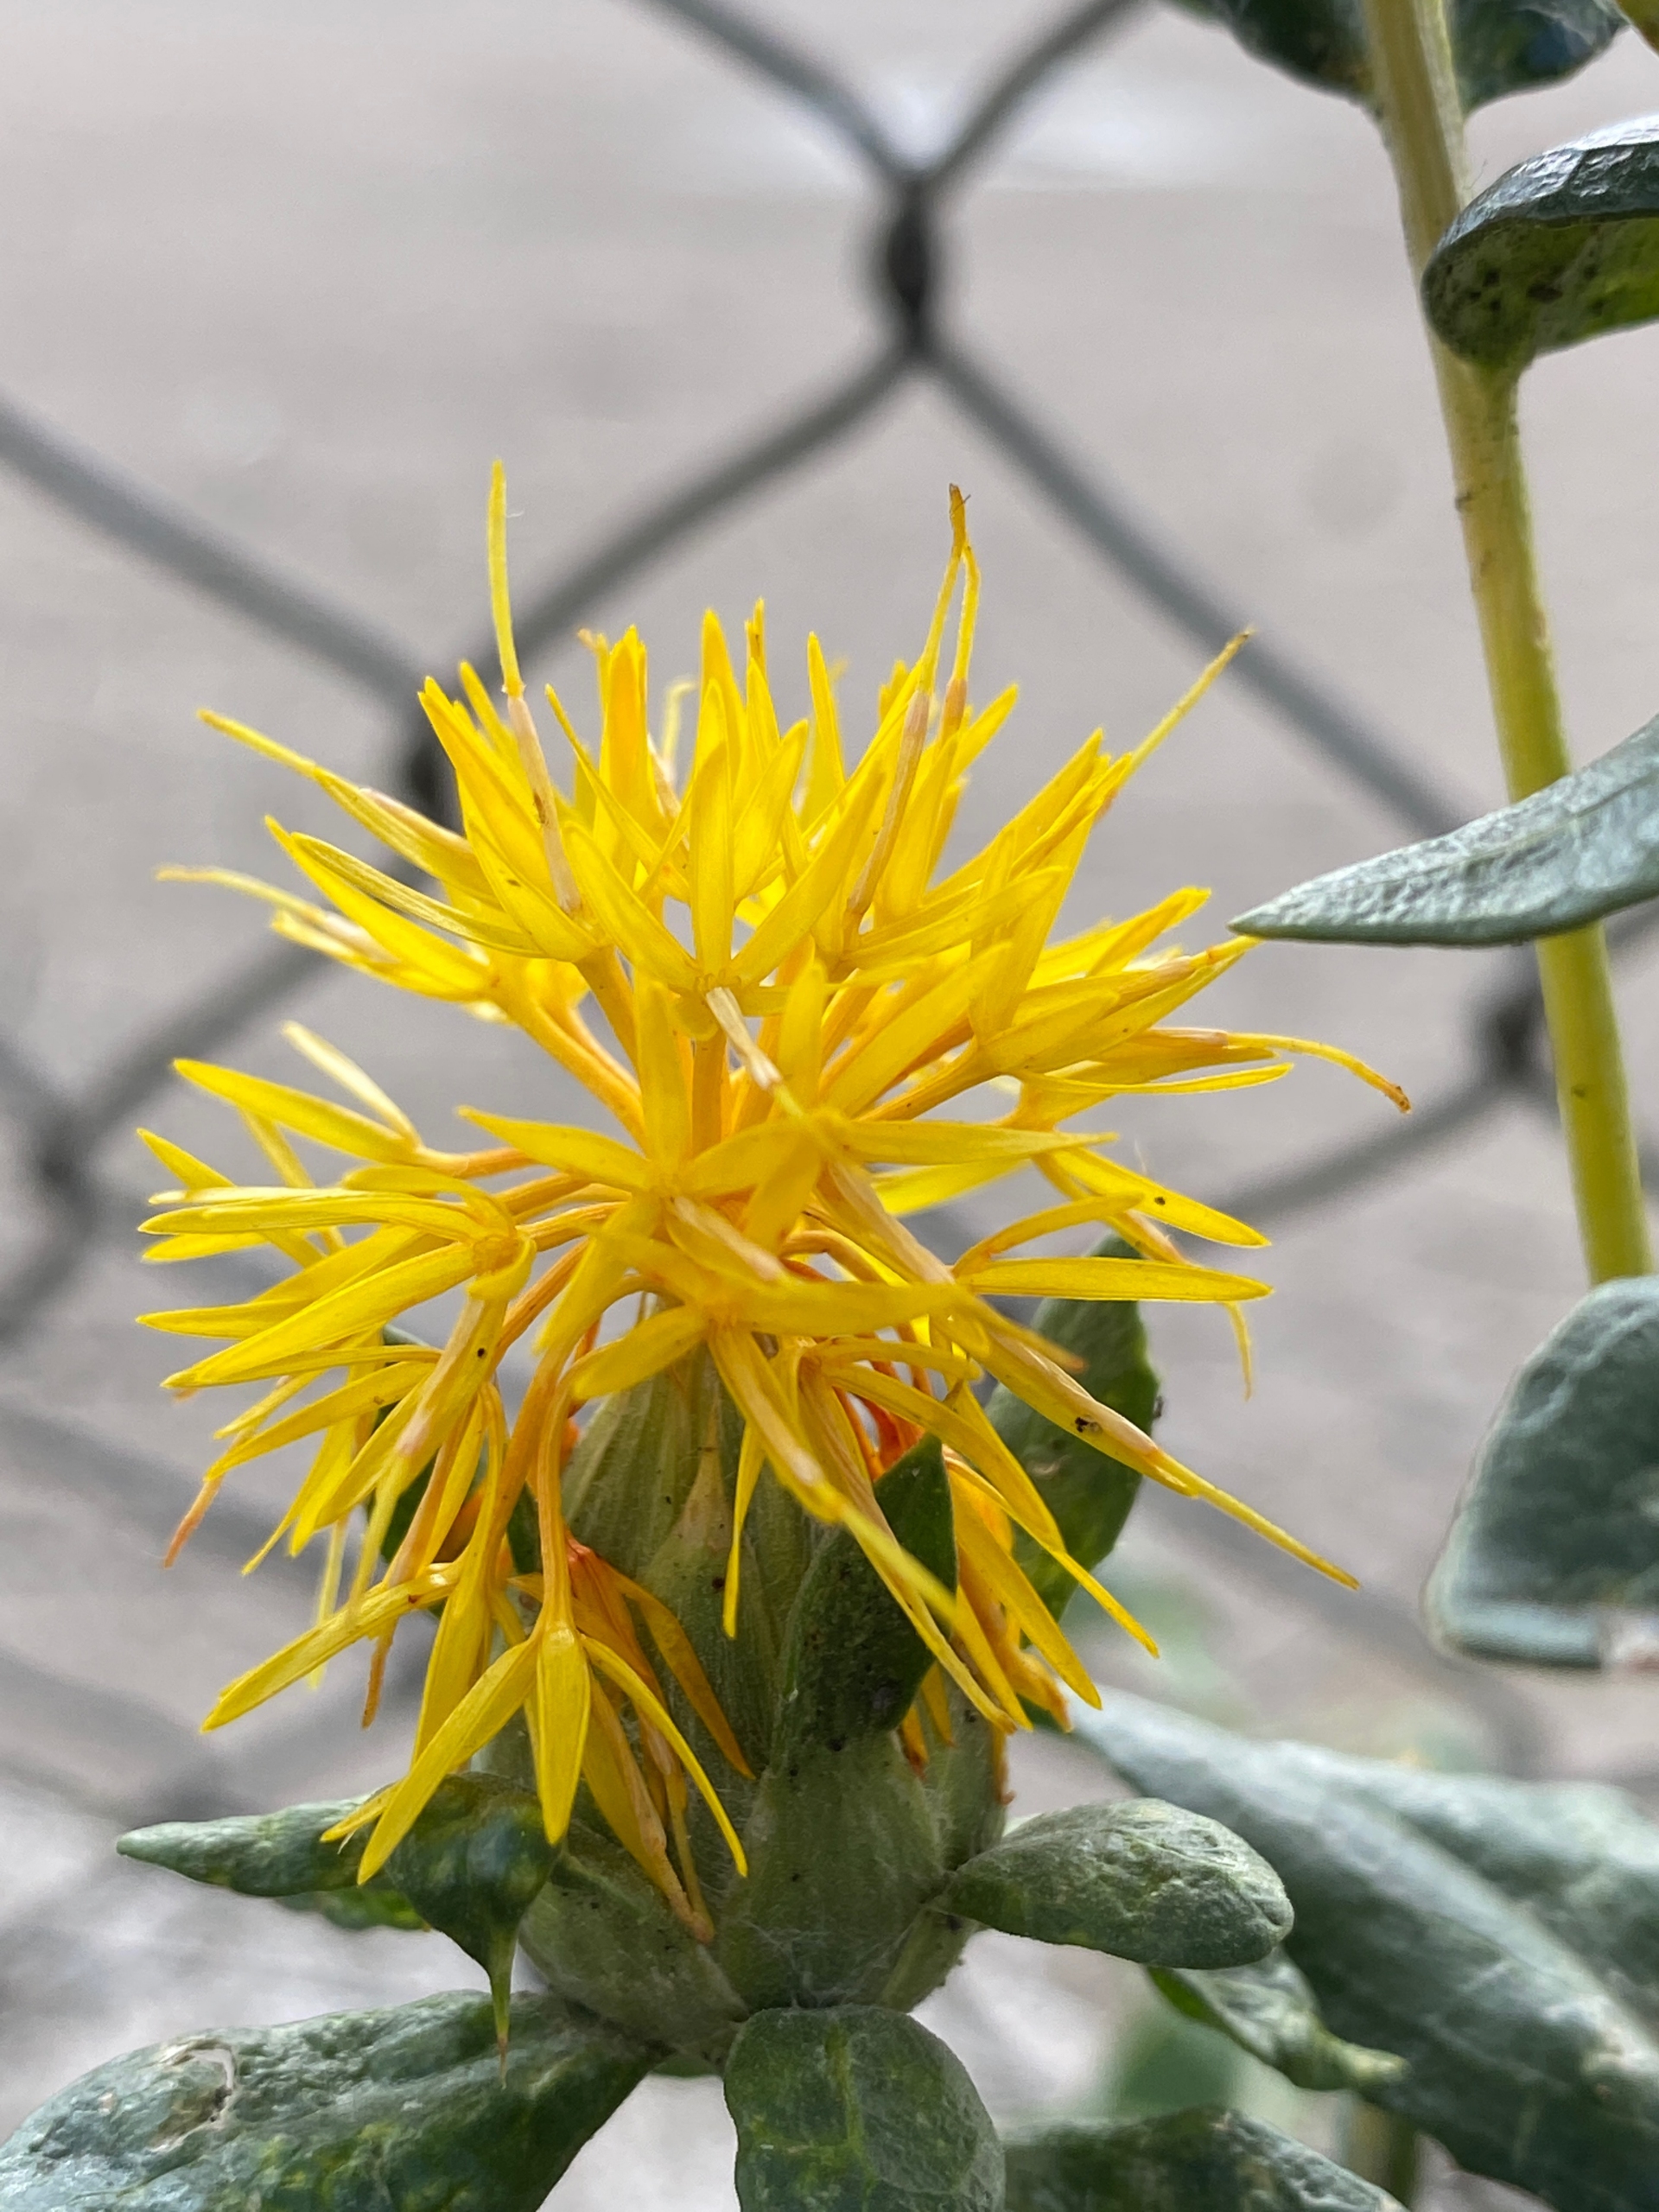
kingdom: Plantae
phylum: Tracheophyta
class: Magnoliopsida
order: Asterales
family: Asteraceae
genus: Carthamus
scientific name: Carthamus tinctorius
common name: Saflortidsel
